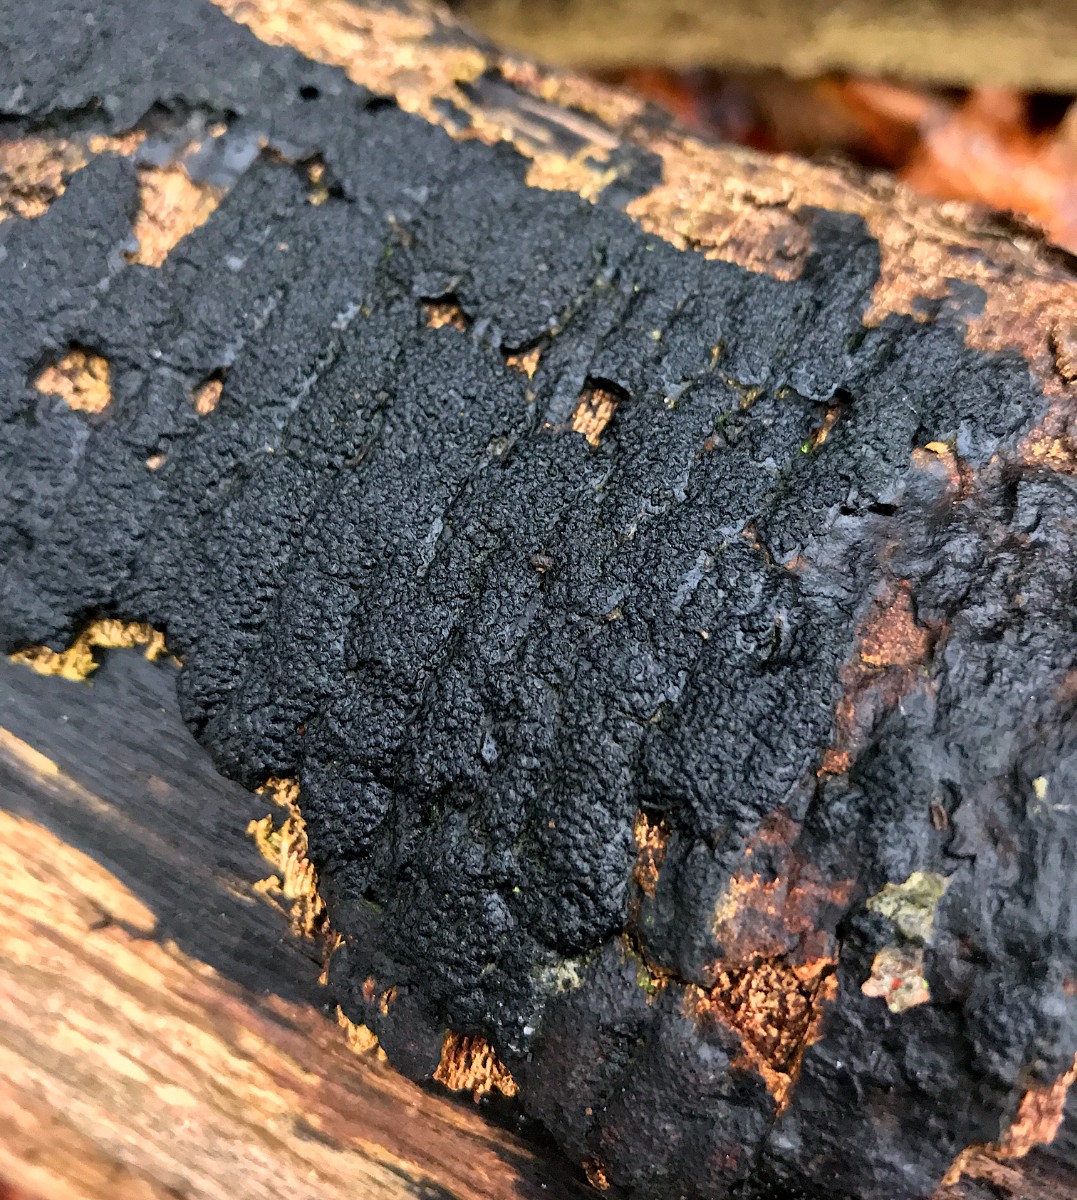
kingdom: Fungi
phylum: Ascomycota
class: Sordariomycetes
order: Xylariales
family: Diatrypaceae
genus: Eutypa
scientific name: Eutypa spinosa
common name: grov kulskorpe
